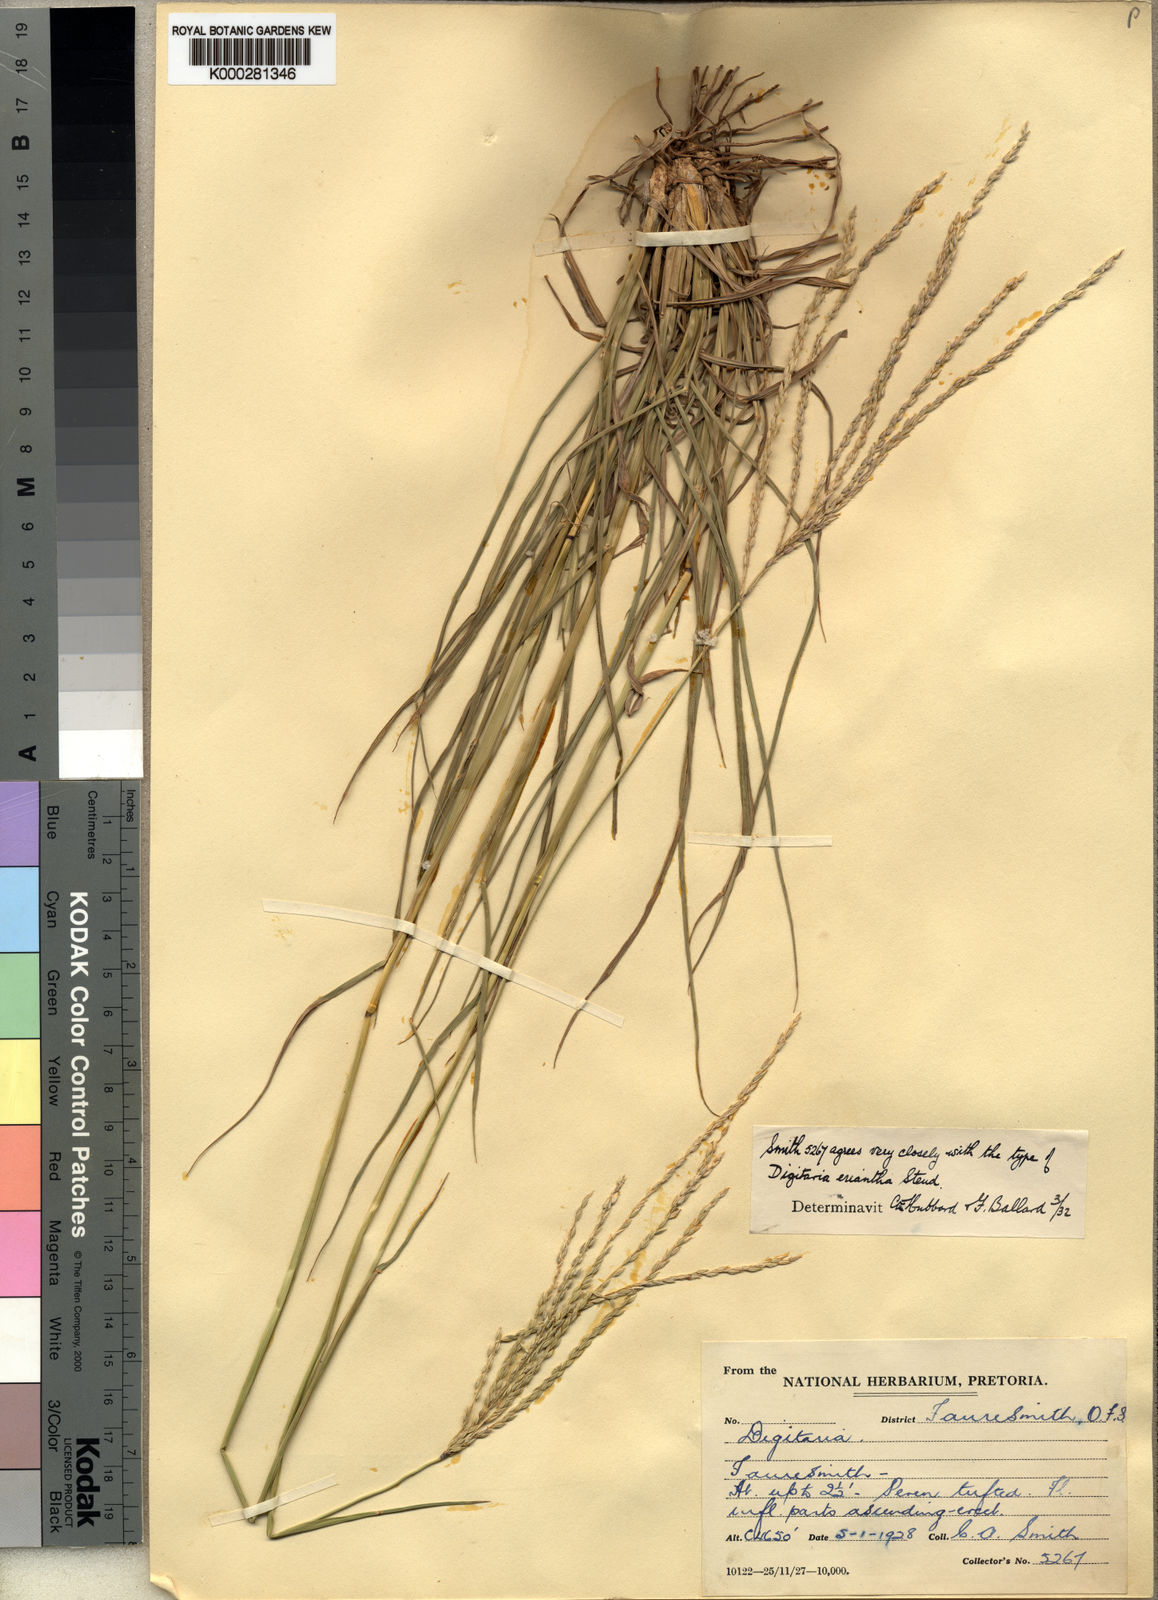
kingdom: Plantae
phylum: Tracheophyta
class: Liliopsida
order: Poales
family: Poaceae
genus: Digitaria
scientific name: Digitaria eriantha
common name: Digitgrass
